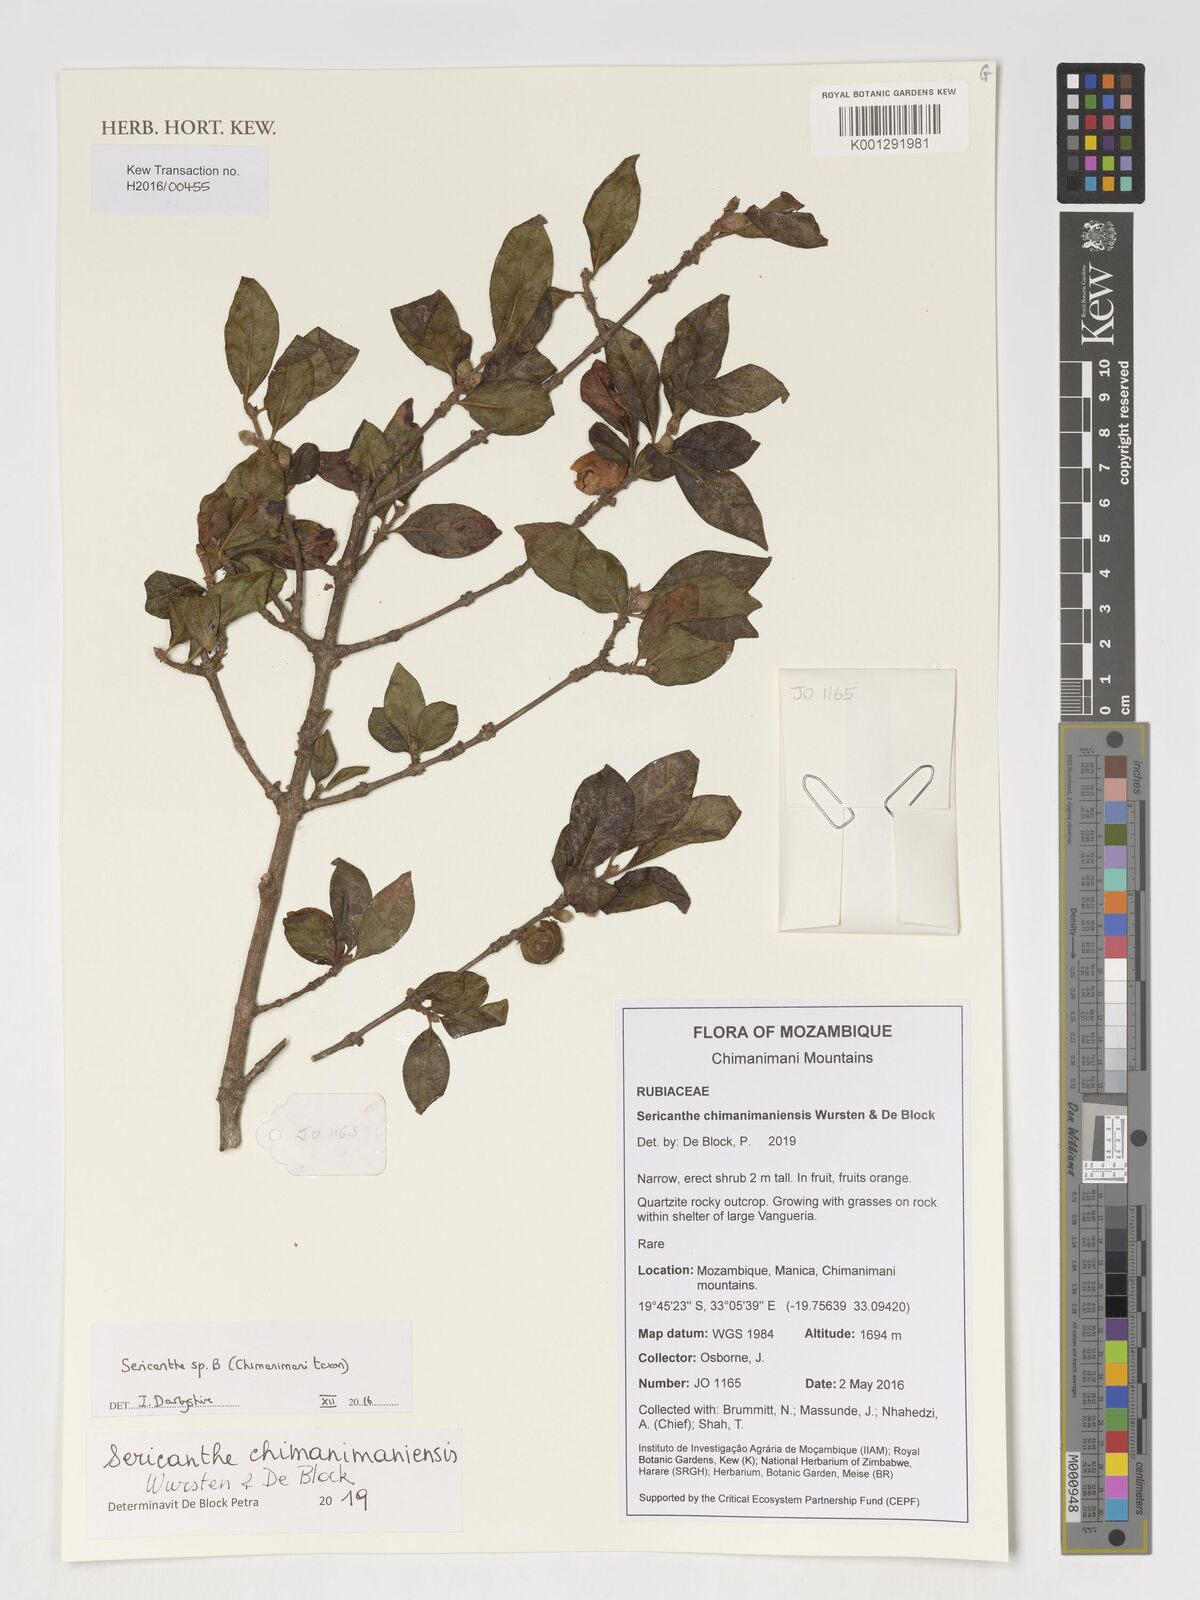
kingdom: Plantae
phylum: Tracheophyta
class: Magnoliopsida
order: Gentianales
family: Rubiaceae
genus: Sericanthe
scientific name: Sericanthe
